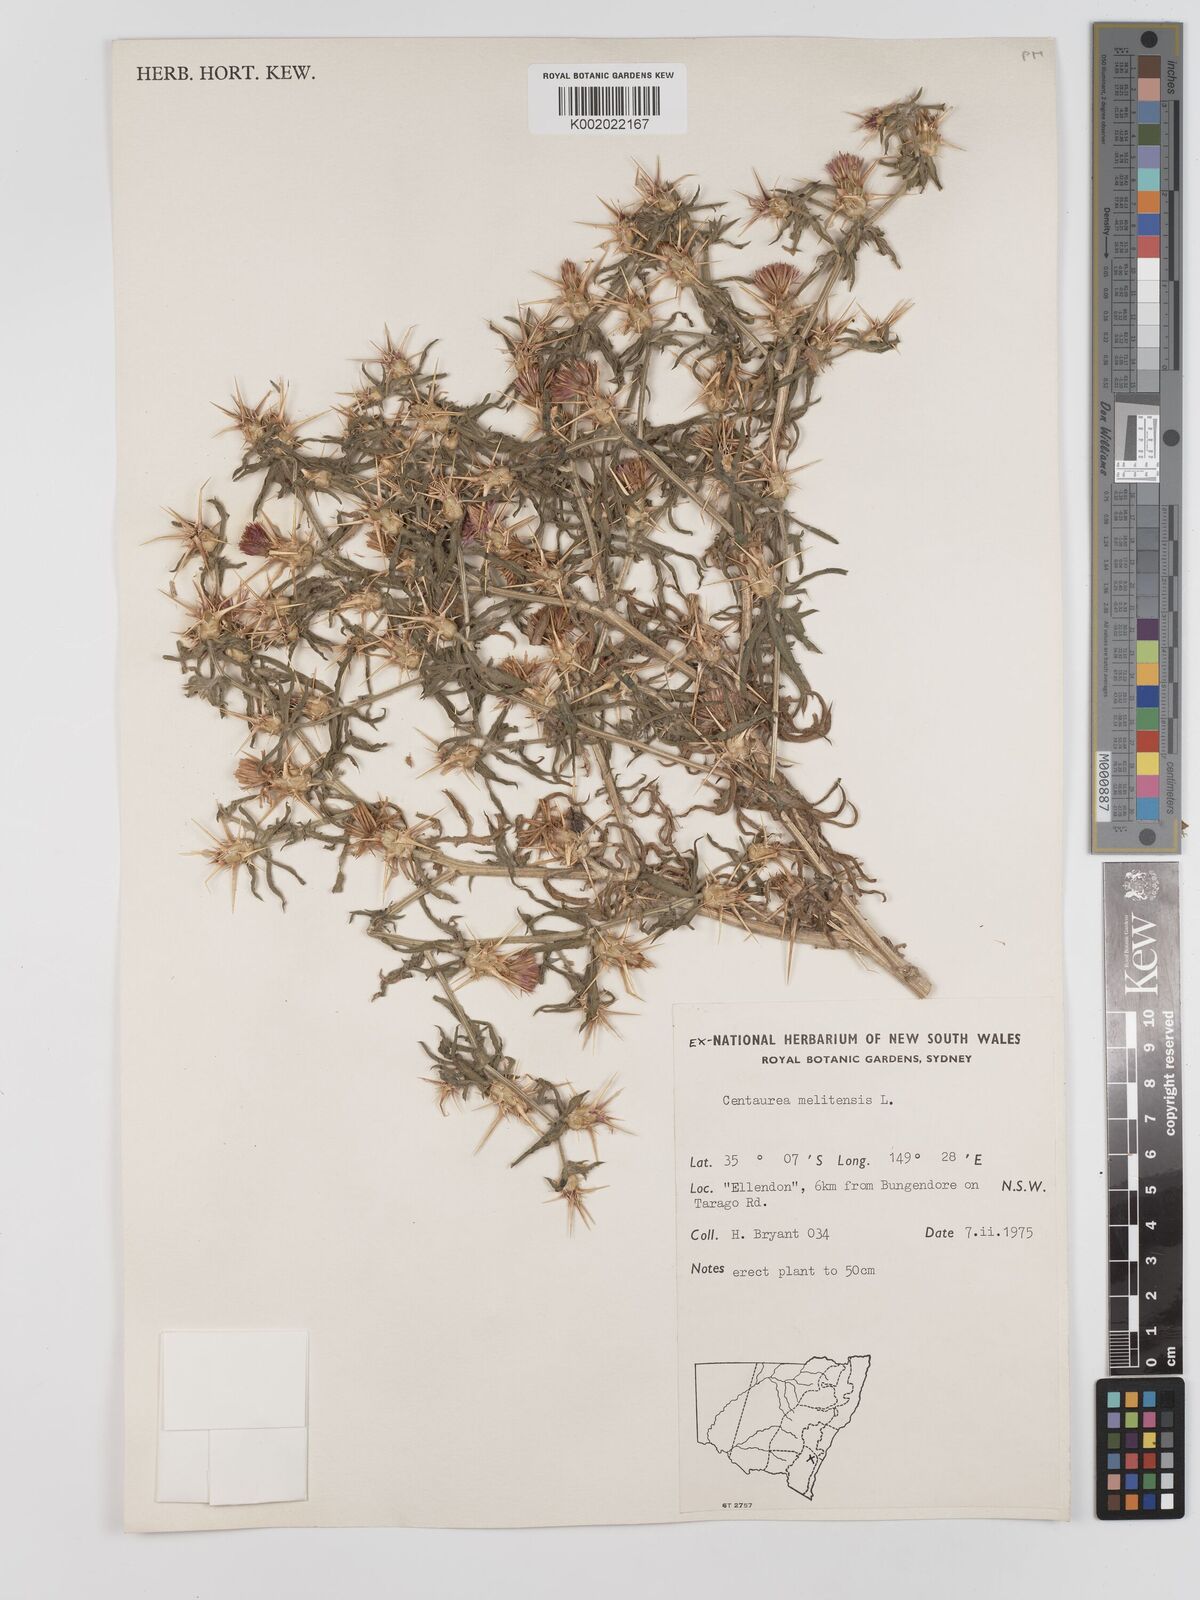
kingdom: Plantae
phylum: Tracheophyta
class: Magnoliopsida
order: Asterales
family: Asteraceae
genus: Centaurea
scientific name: Centaurea melitensis
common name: Maltese star-thistle
